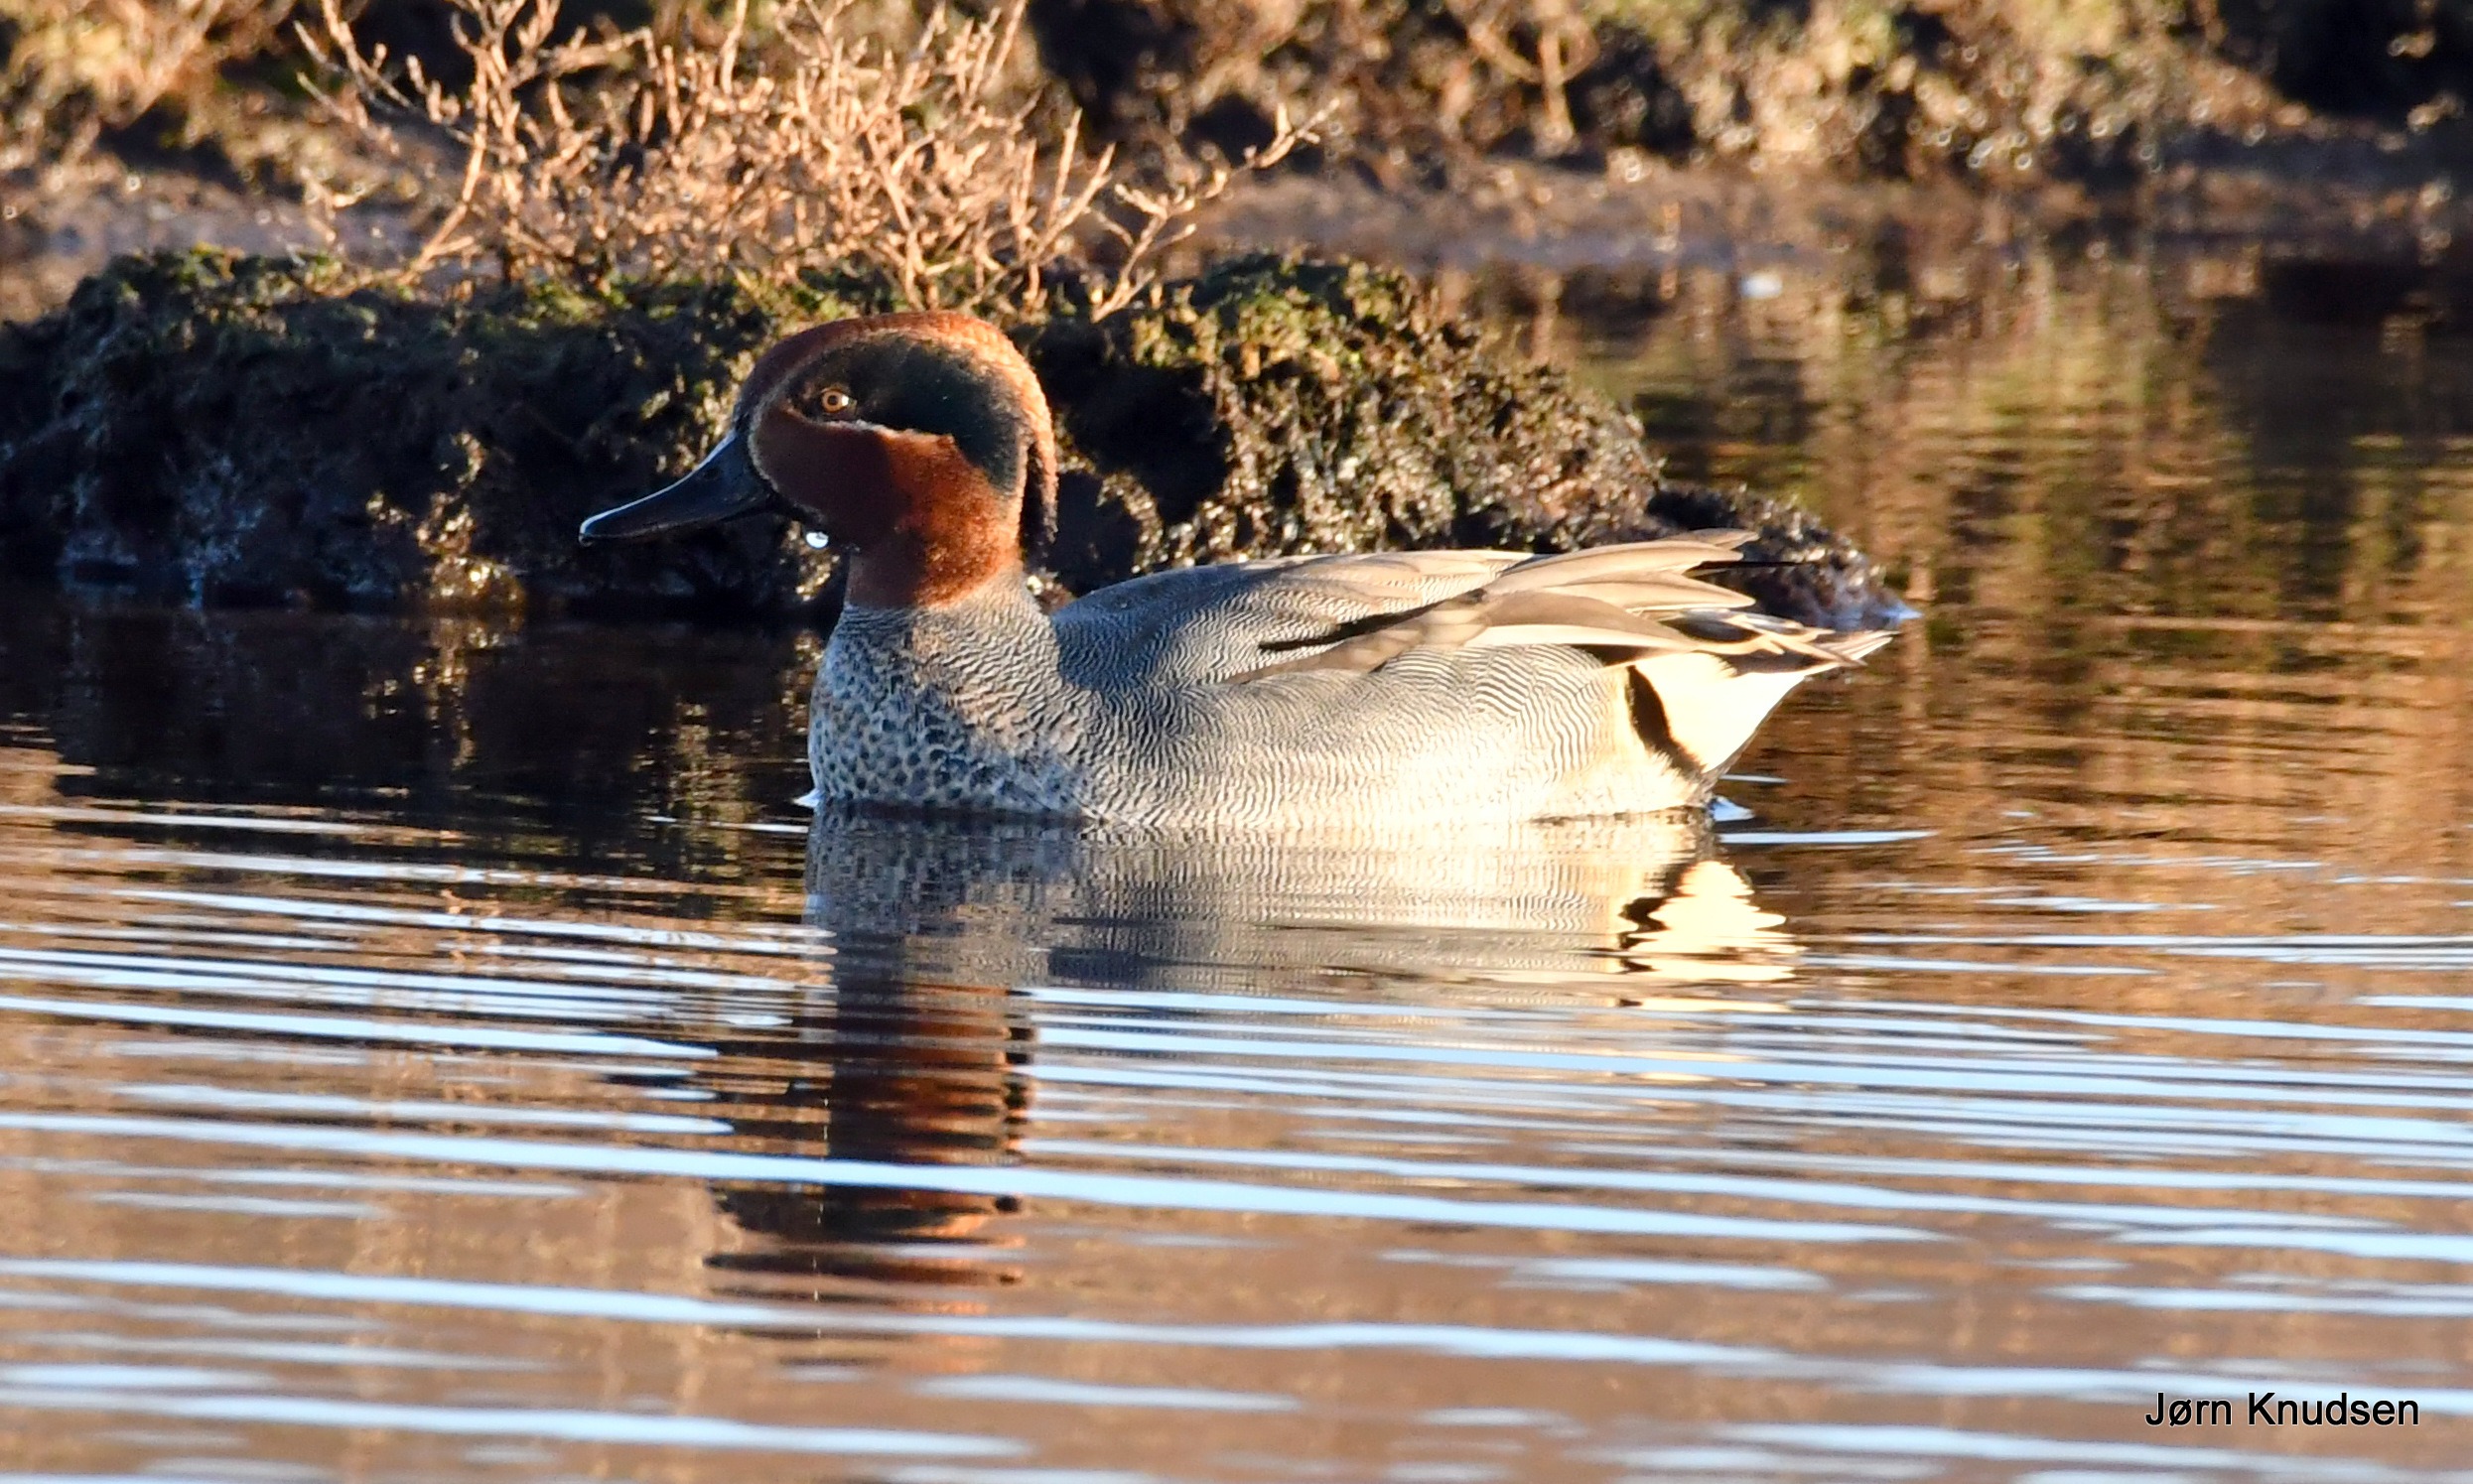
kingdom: Animalia
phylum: Chordata
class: Aves
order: Anseriformes
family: Anatidae
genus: Anas
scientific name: Anas crecca
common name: Krikand
